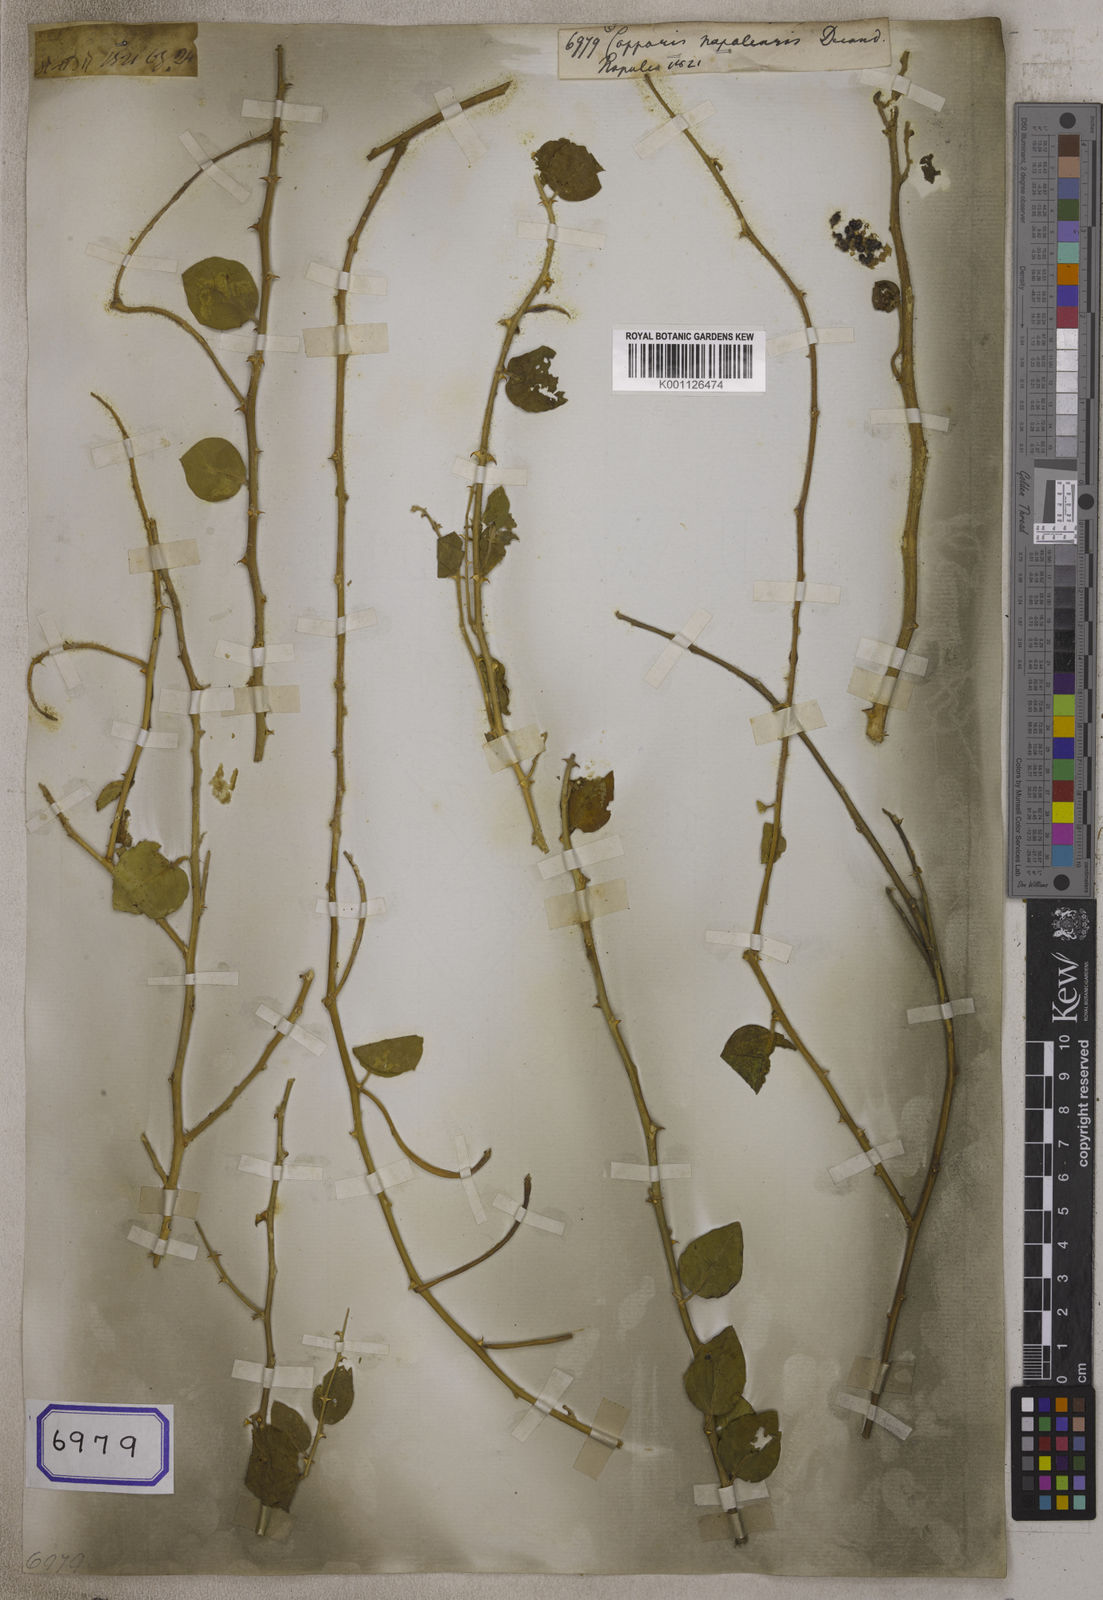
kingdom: Plantae
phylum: Tracheophyta
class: Magnoliopsida
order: Brassicales
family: Capparaceae
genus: Capparis
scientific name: Capparis spinosa
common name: Caper
